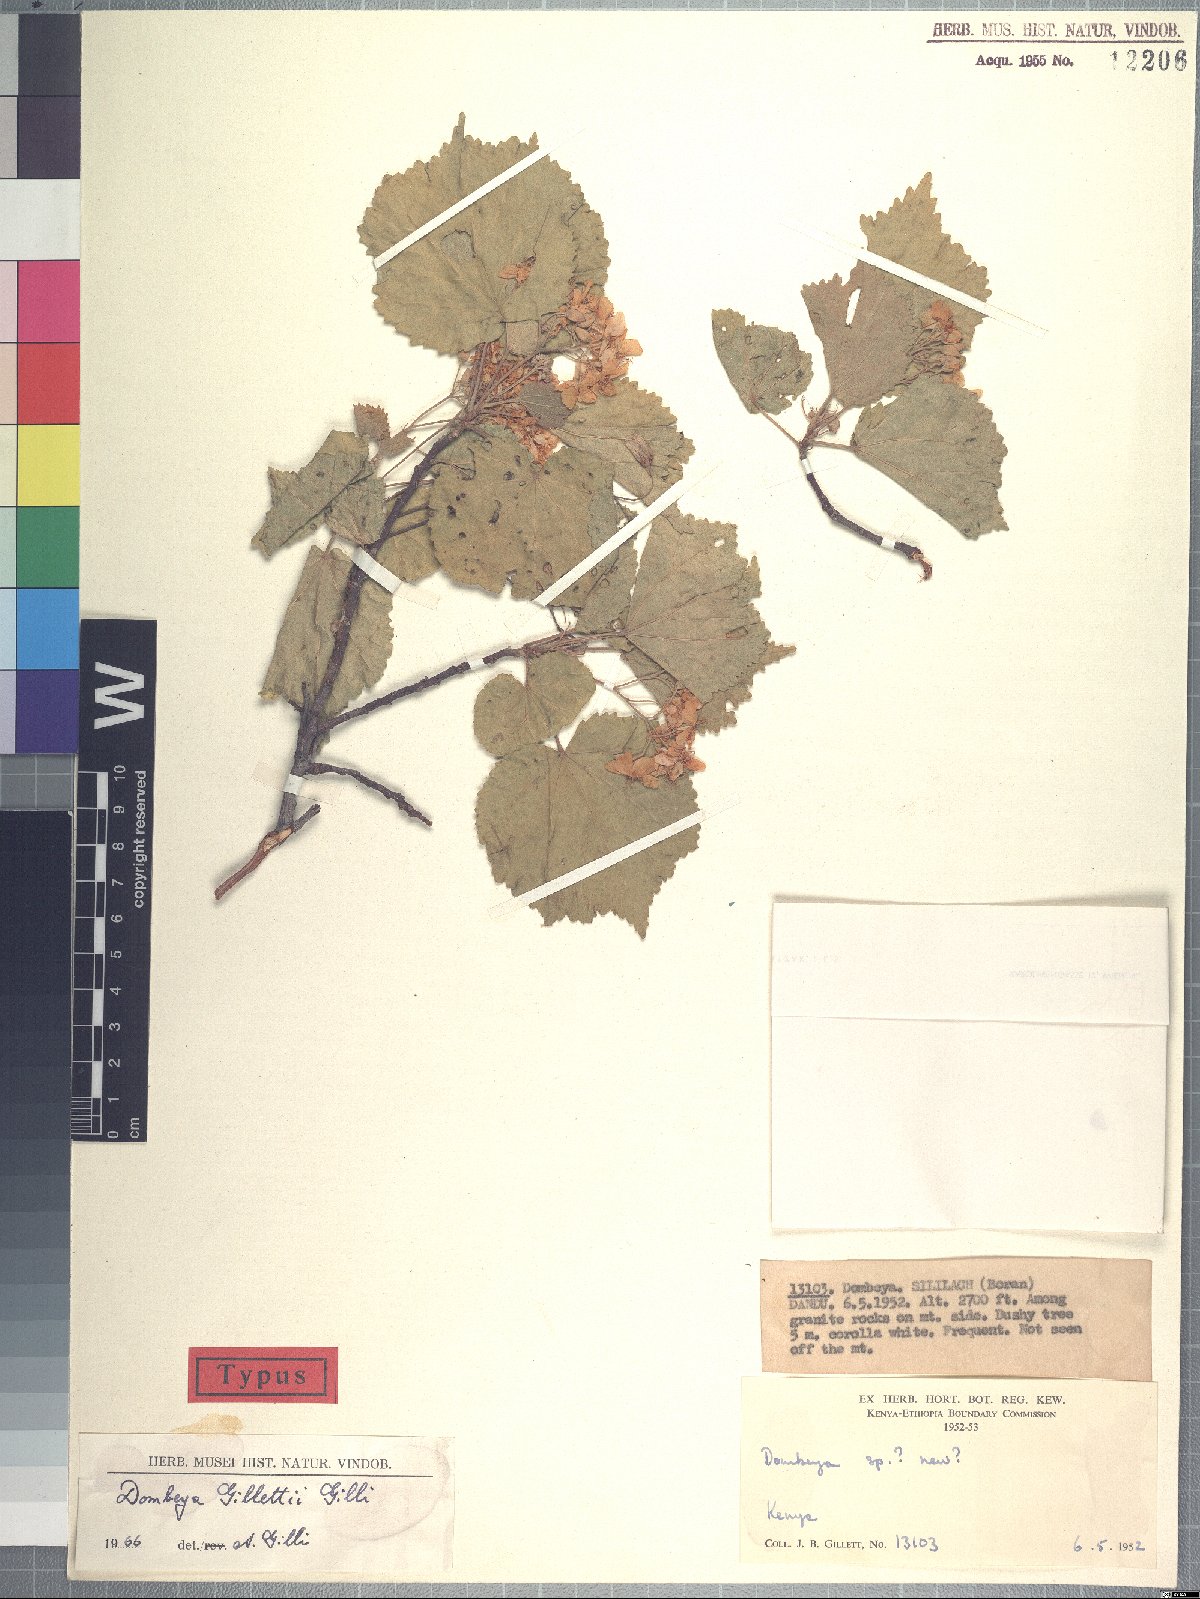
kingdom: Plantae
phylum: Tracheophyta
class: Magnoliopsida
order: Malvales
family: Malvaceae
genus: Dombeya
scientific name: Dombeya kirkii
